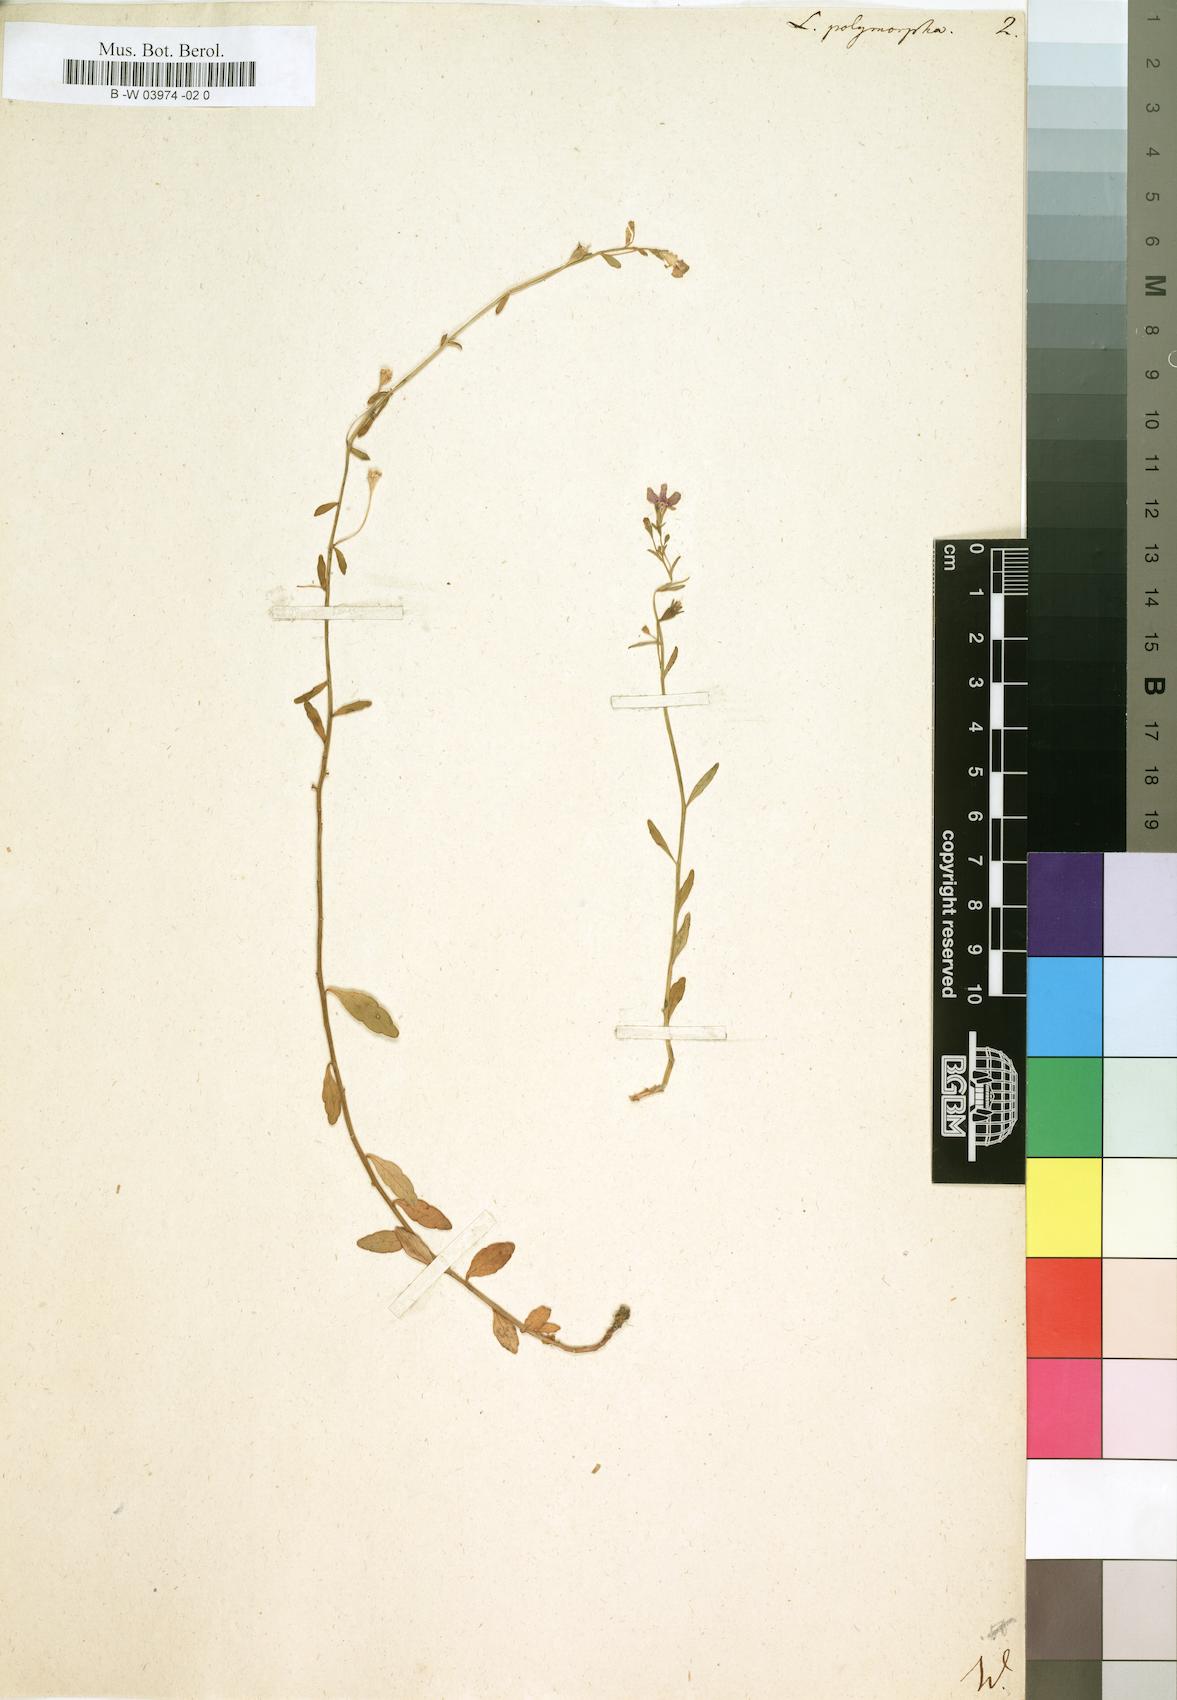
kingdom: Plantae
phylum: Tracheophyta
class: Magnoliopsida
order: Asterales
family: Campanulaceae
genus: Lobelia
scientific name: Lobelia polymorpha
